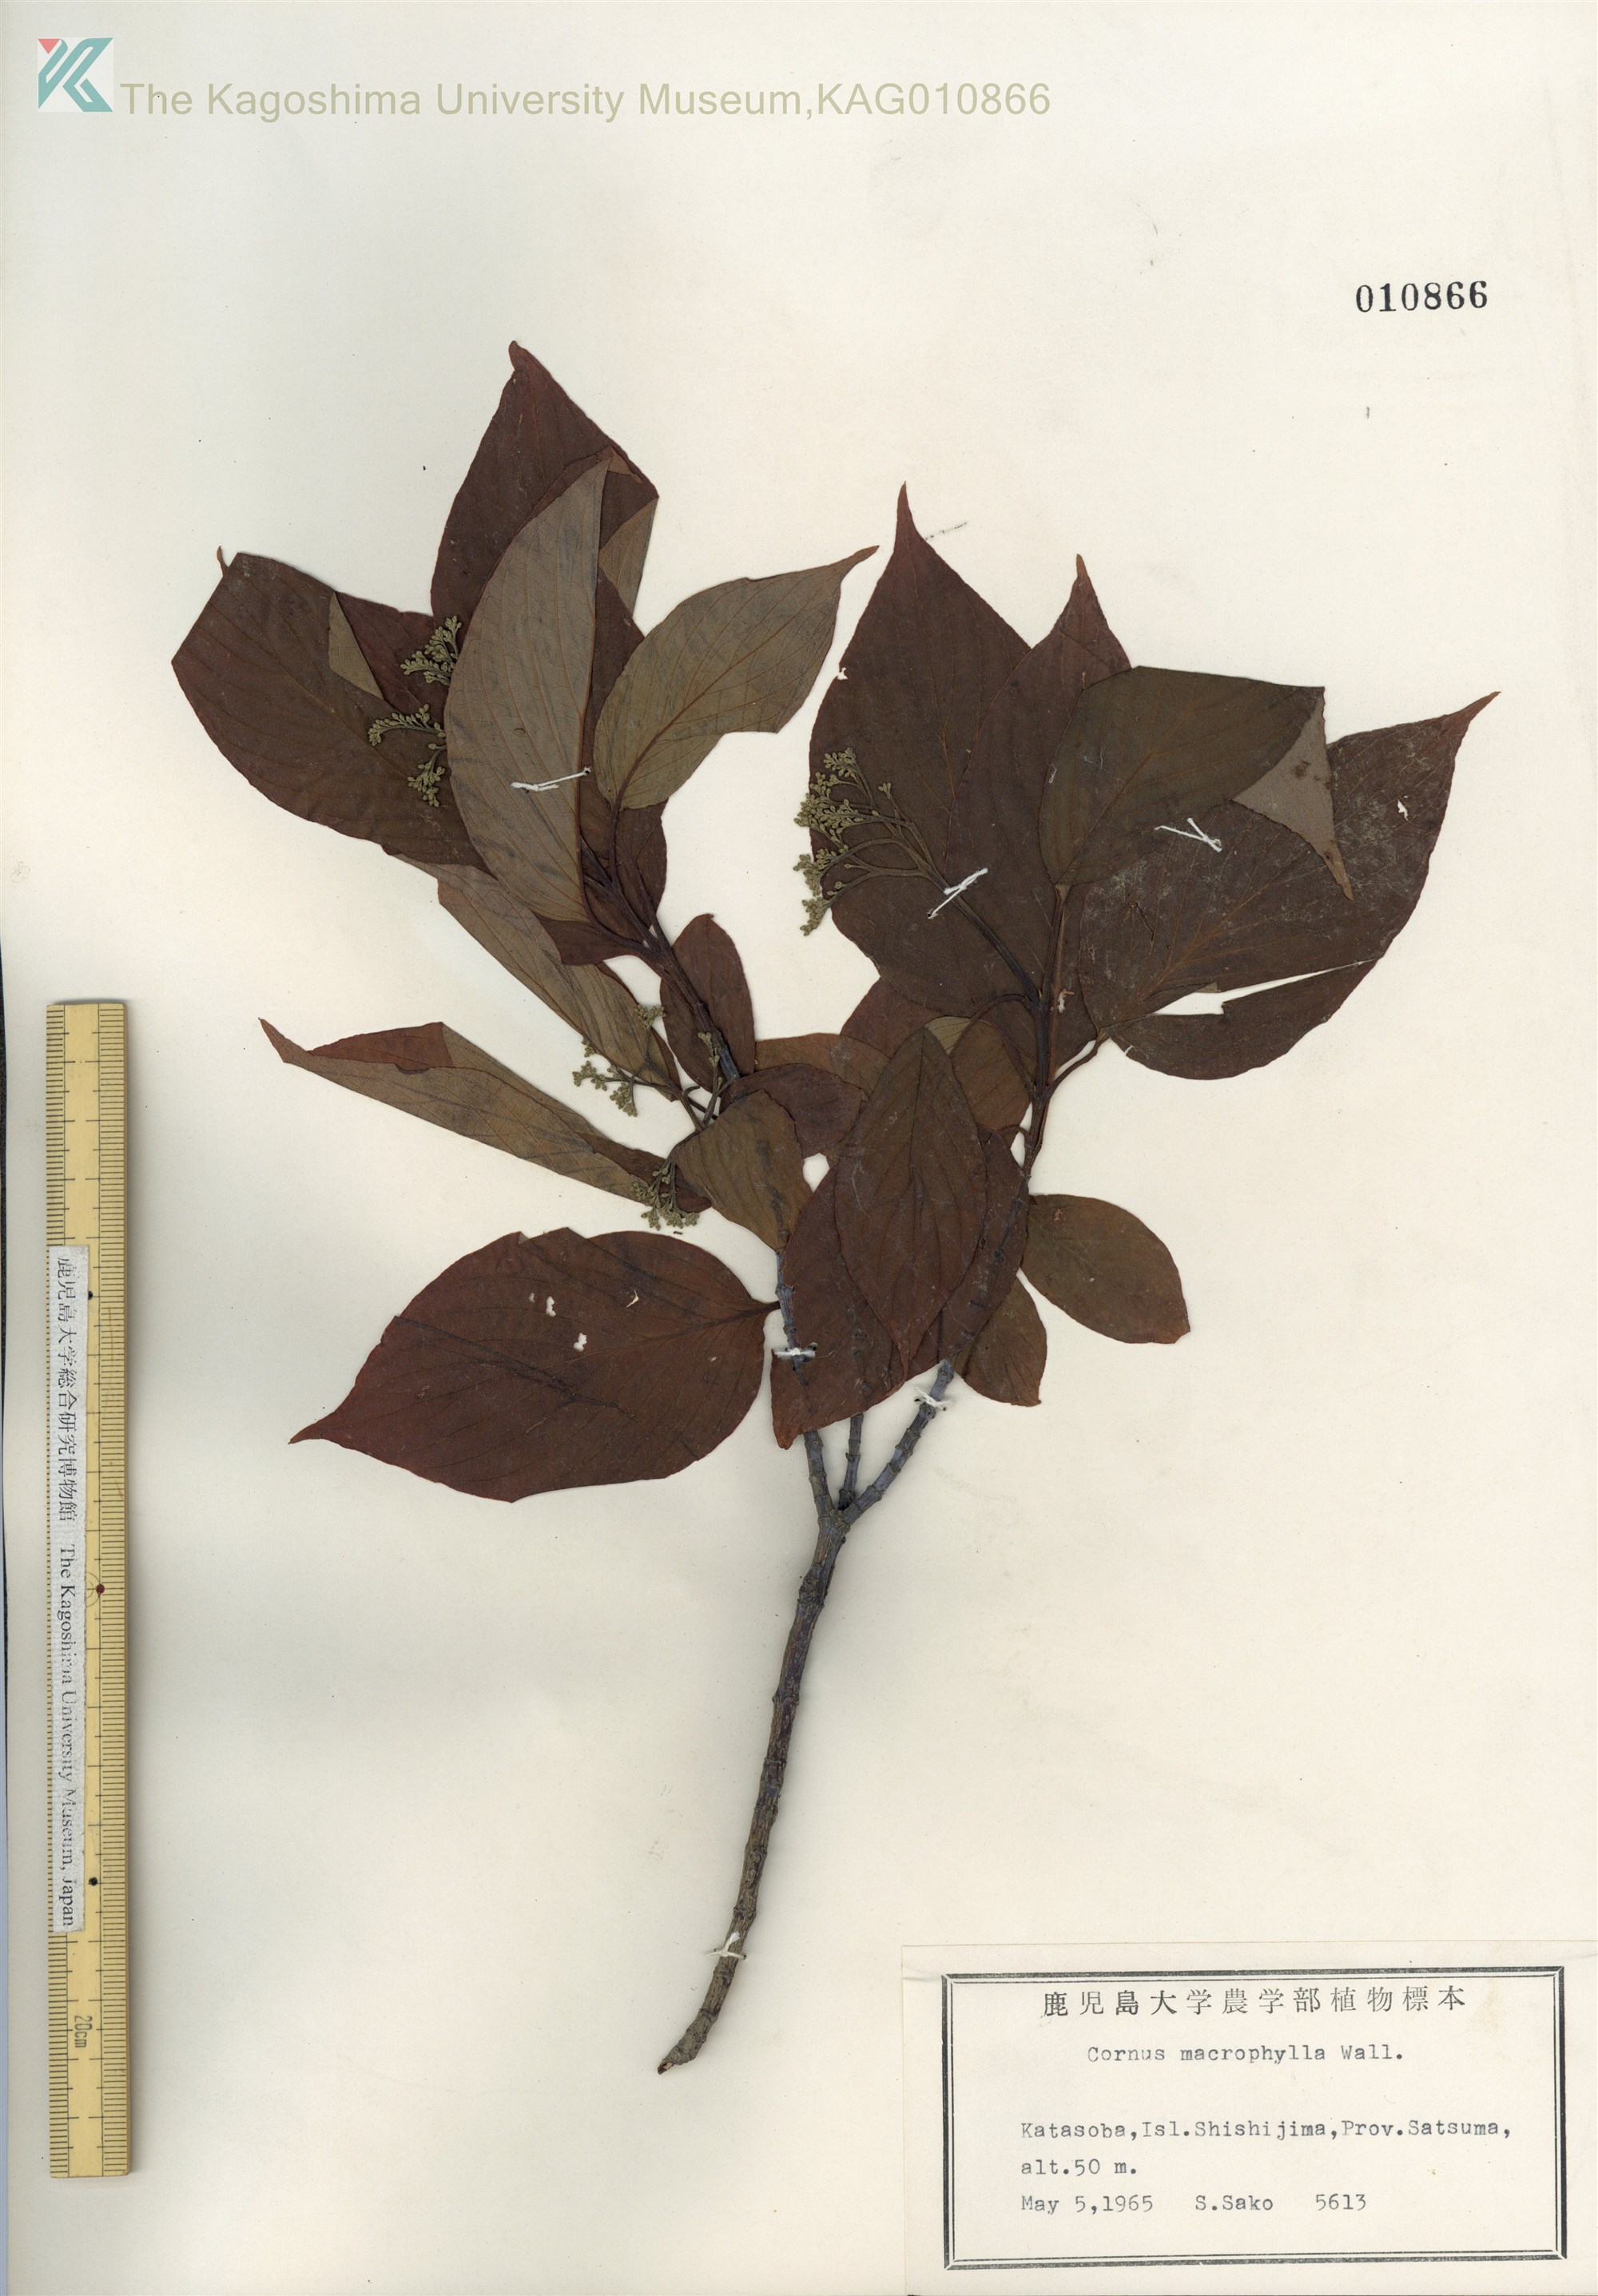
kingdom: Plantae
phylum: Tracheophyta
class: Magnoliopsida
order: Cornales
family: Cornaceae
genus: Cornus
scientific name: Cornus macrophylla
